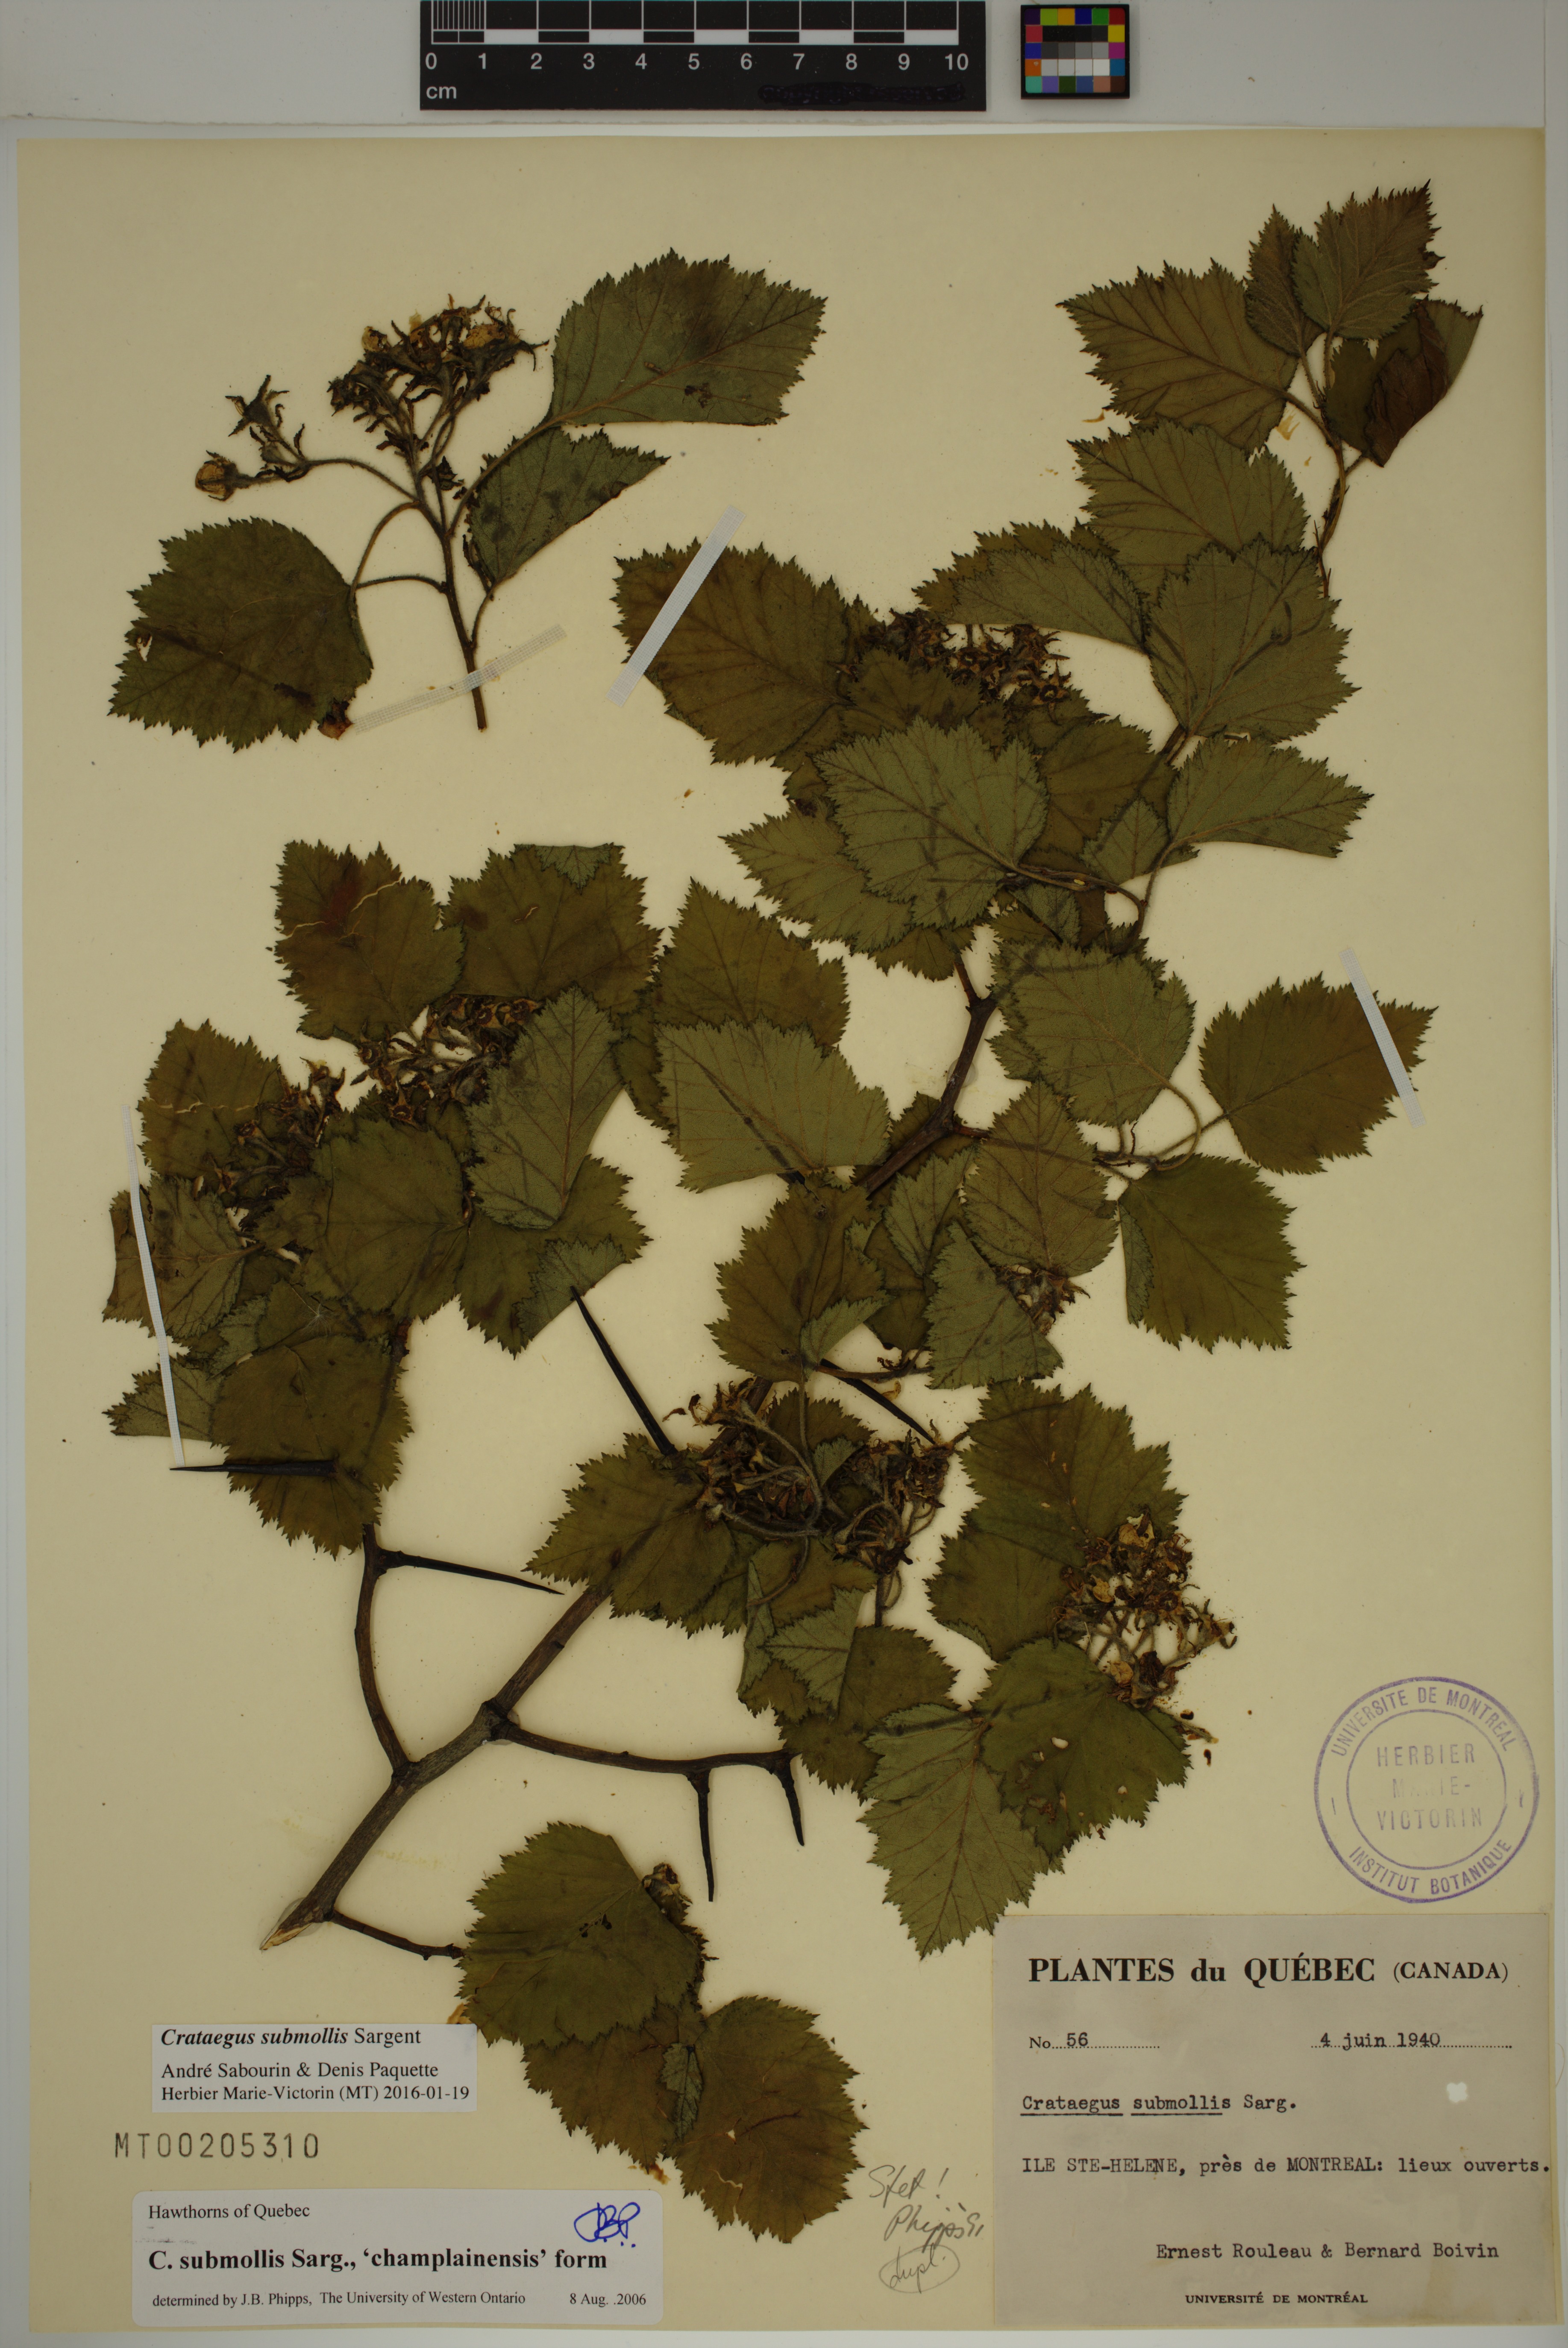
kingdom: Plantae
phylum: Tracheophyta
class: Magnoliopsida
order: Rosales
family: Rosaceae
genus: Crataegus
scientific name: Crataegus submollis
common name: Hairy cockspurthorn
